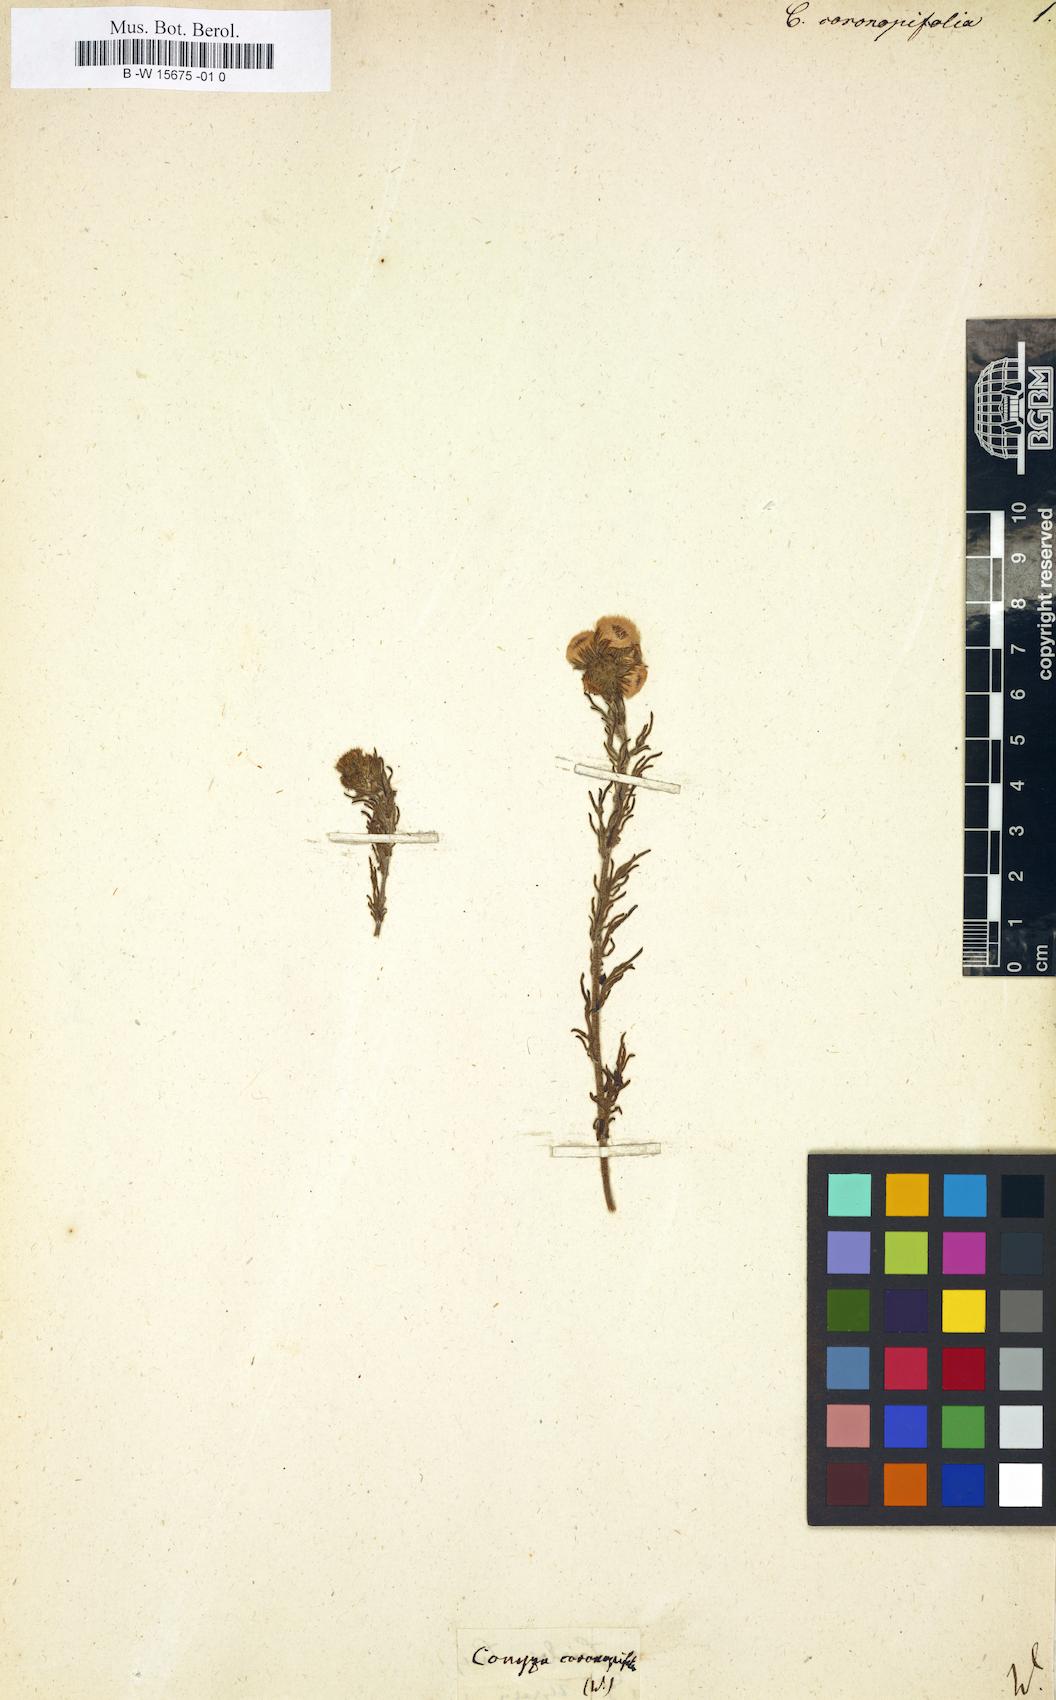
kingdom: Plantae
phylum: Tracheophyta
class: Magnoliopsida
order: Asterales
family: Asteraceae
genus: Erigeron
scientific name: Erigeron variifolius
